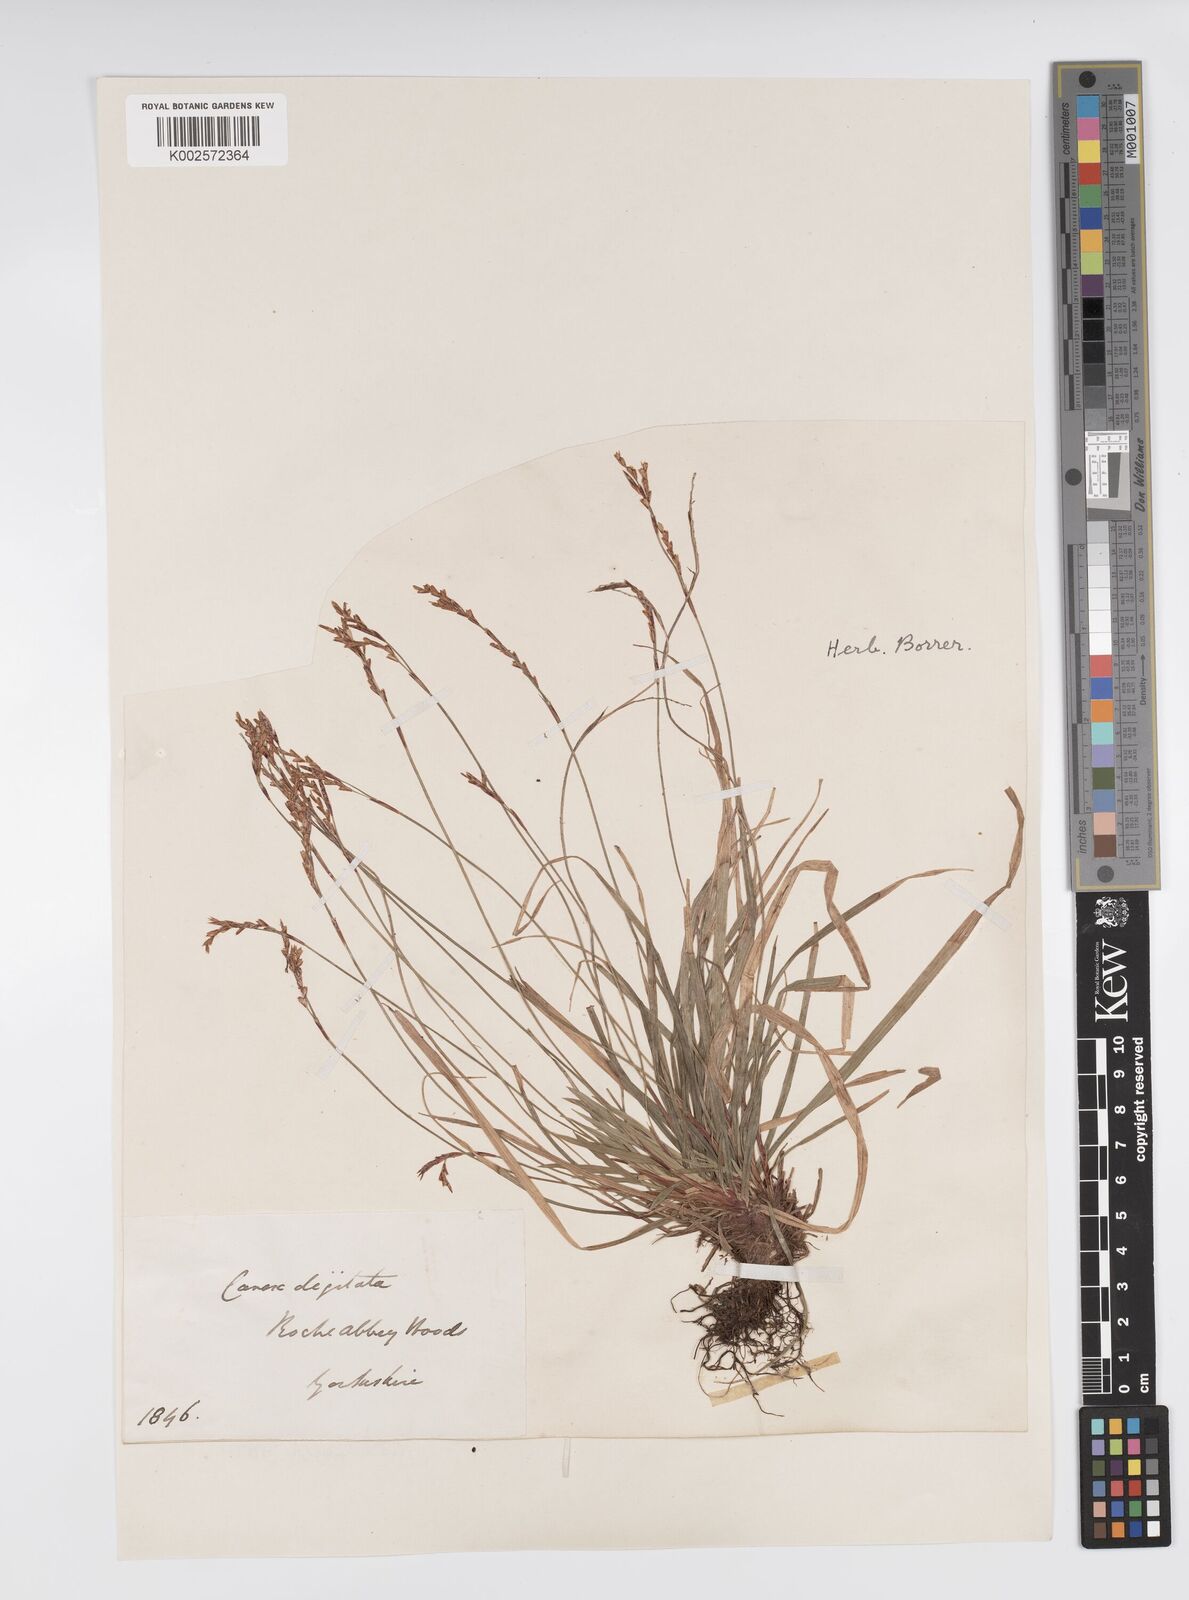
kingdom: Plantae
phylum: Tracheophyta
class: Liliopsida
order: Poales
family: Cyperaceae
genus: Carex
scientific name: Carex digitata
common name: Fingered sedge
